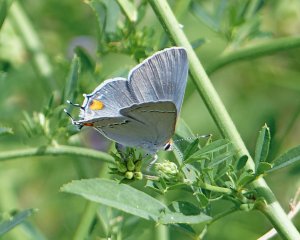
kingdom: Animalia
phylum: Arthropoda
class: Insecta
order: Lepidoptera
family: Lycaenidae
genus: Strymon
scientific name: Strymon melinus
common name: Gray Hairstreak
